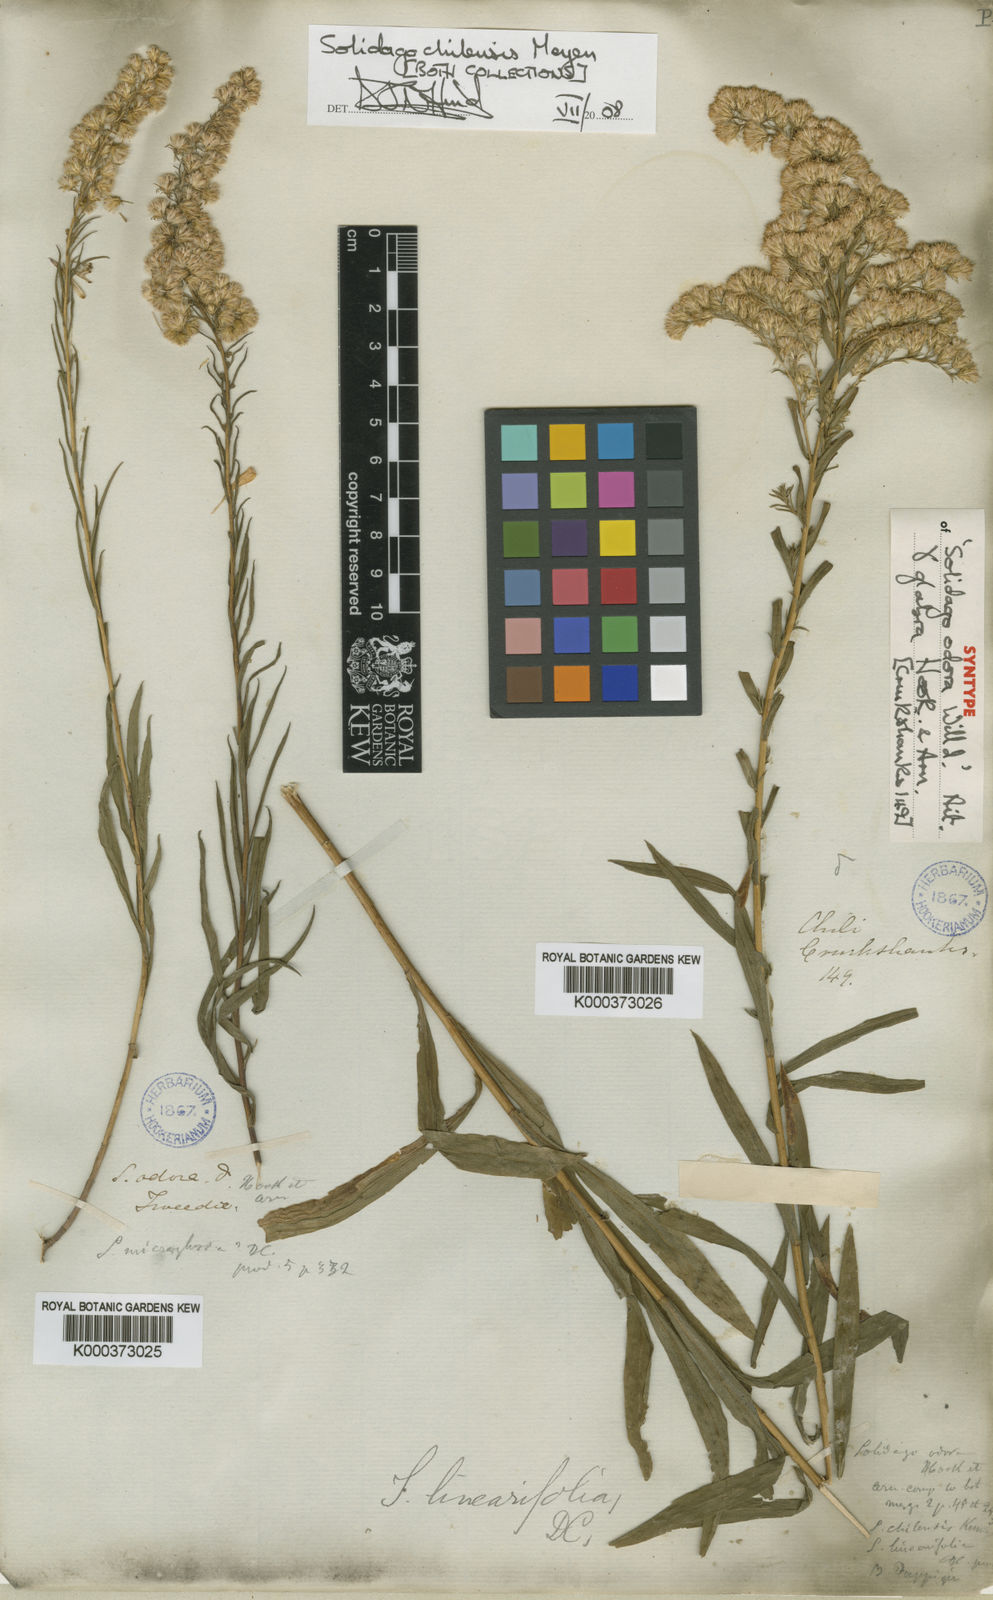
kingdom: Plantae
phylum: Tracheophyta
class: Magnoliopsida
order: Asterales
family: Asteraceae
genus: Solidago
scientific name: Solidago chilensis
